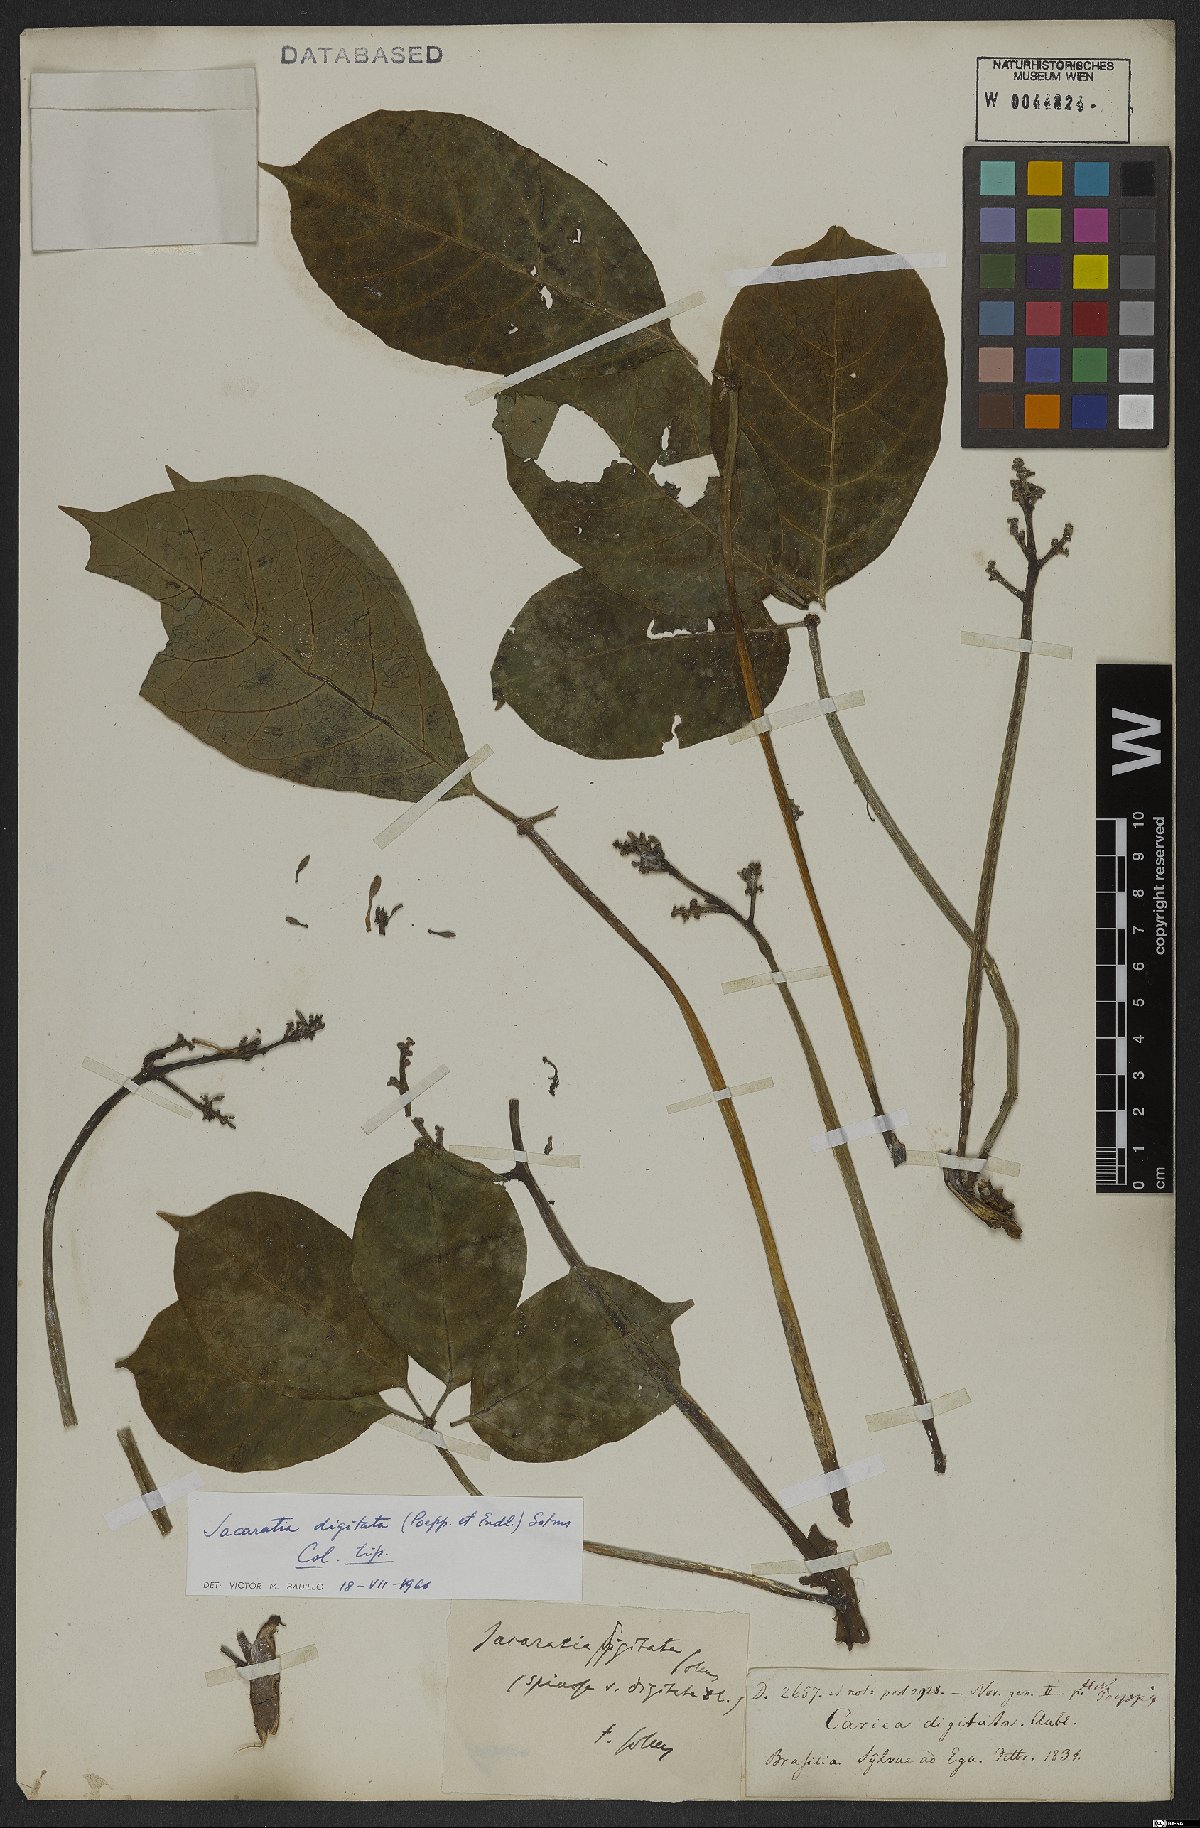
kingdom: Plantae
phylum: Tracheophyta
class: Magnoliopsida
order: Brassicales
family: Caricaceae
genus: Jacaratia
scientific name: Jacaratia digitata
